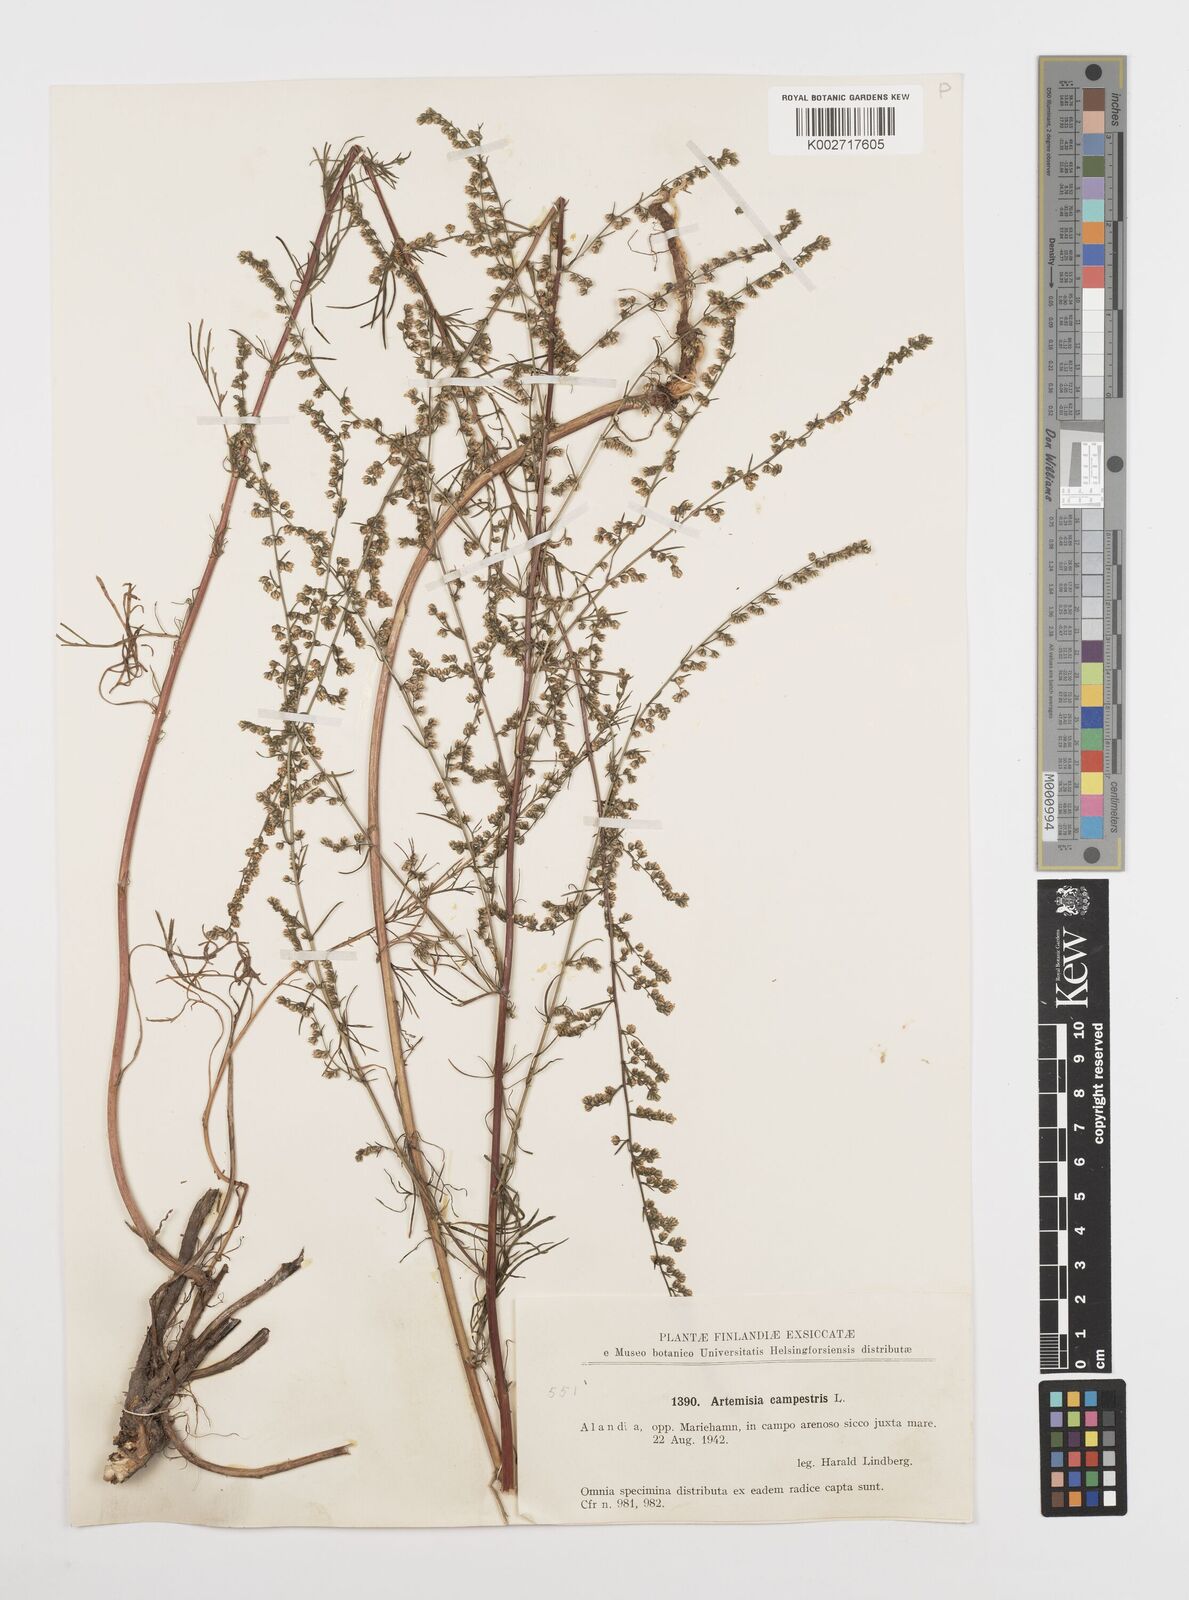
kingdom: Plantae
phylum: Tracheophyta
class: Magnoliopsida
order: Asterales
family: Asteraceae
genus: Artemisia
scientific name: Artemisia campestris
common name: Field wormwood
